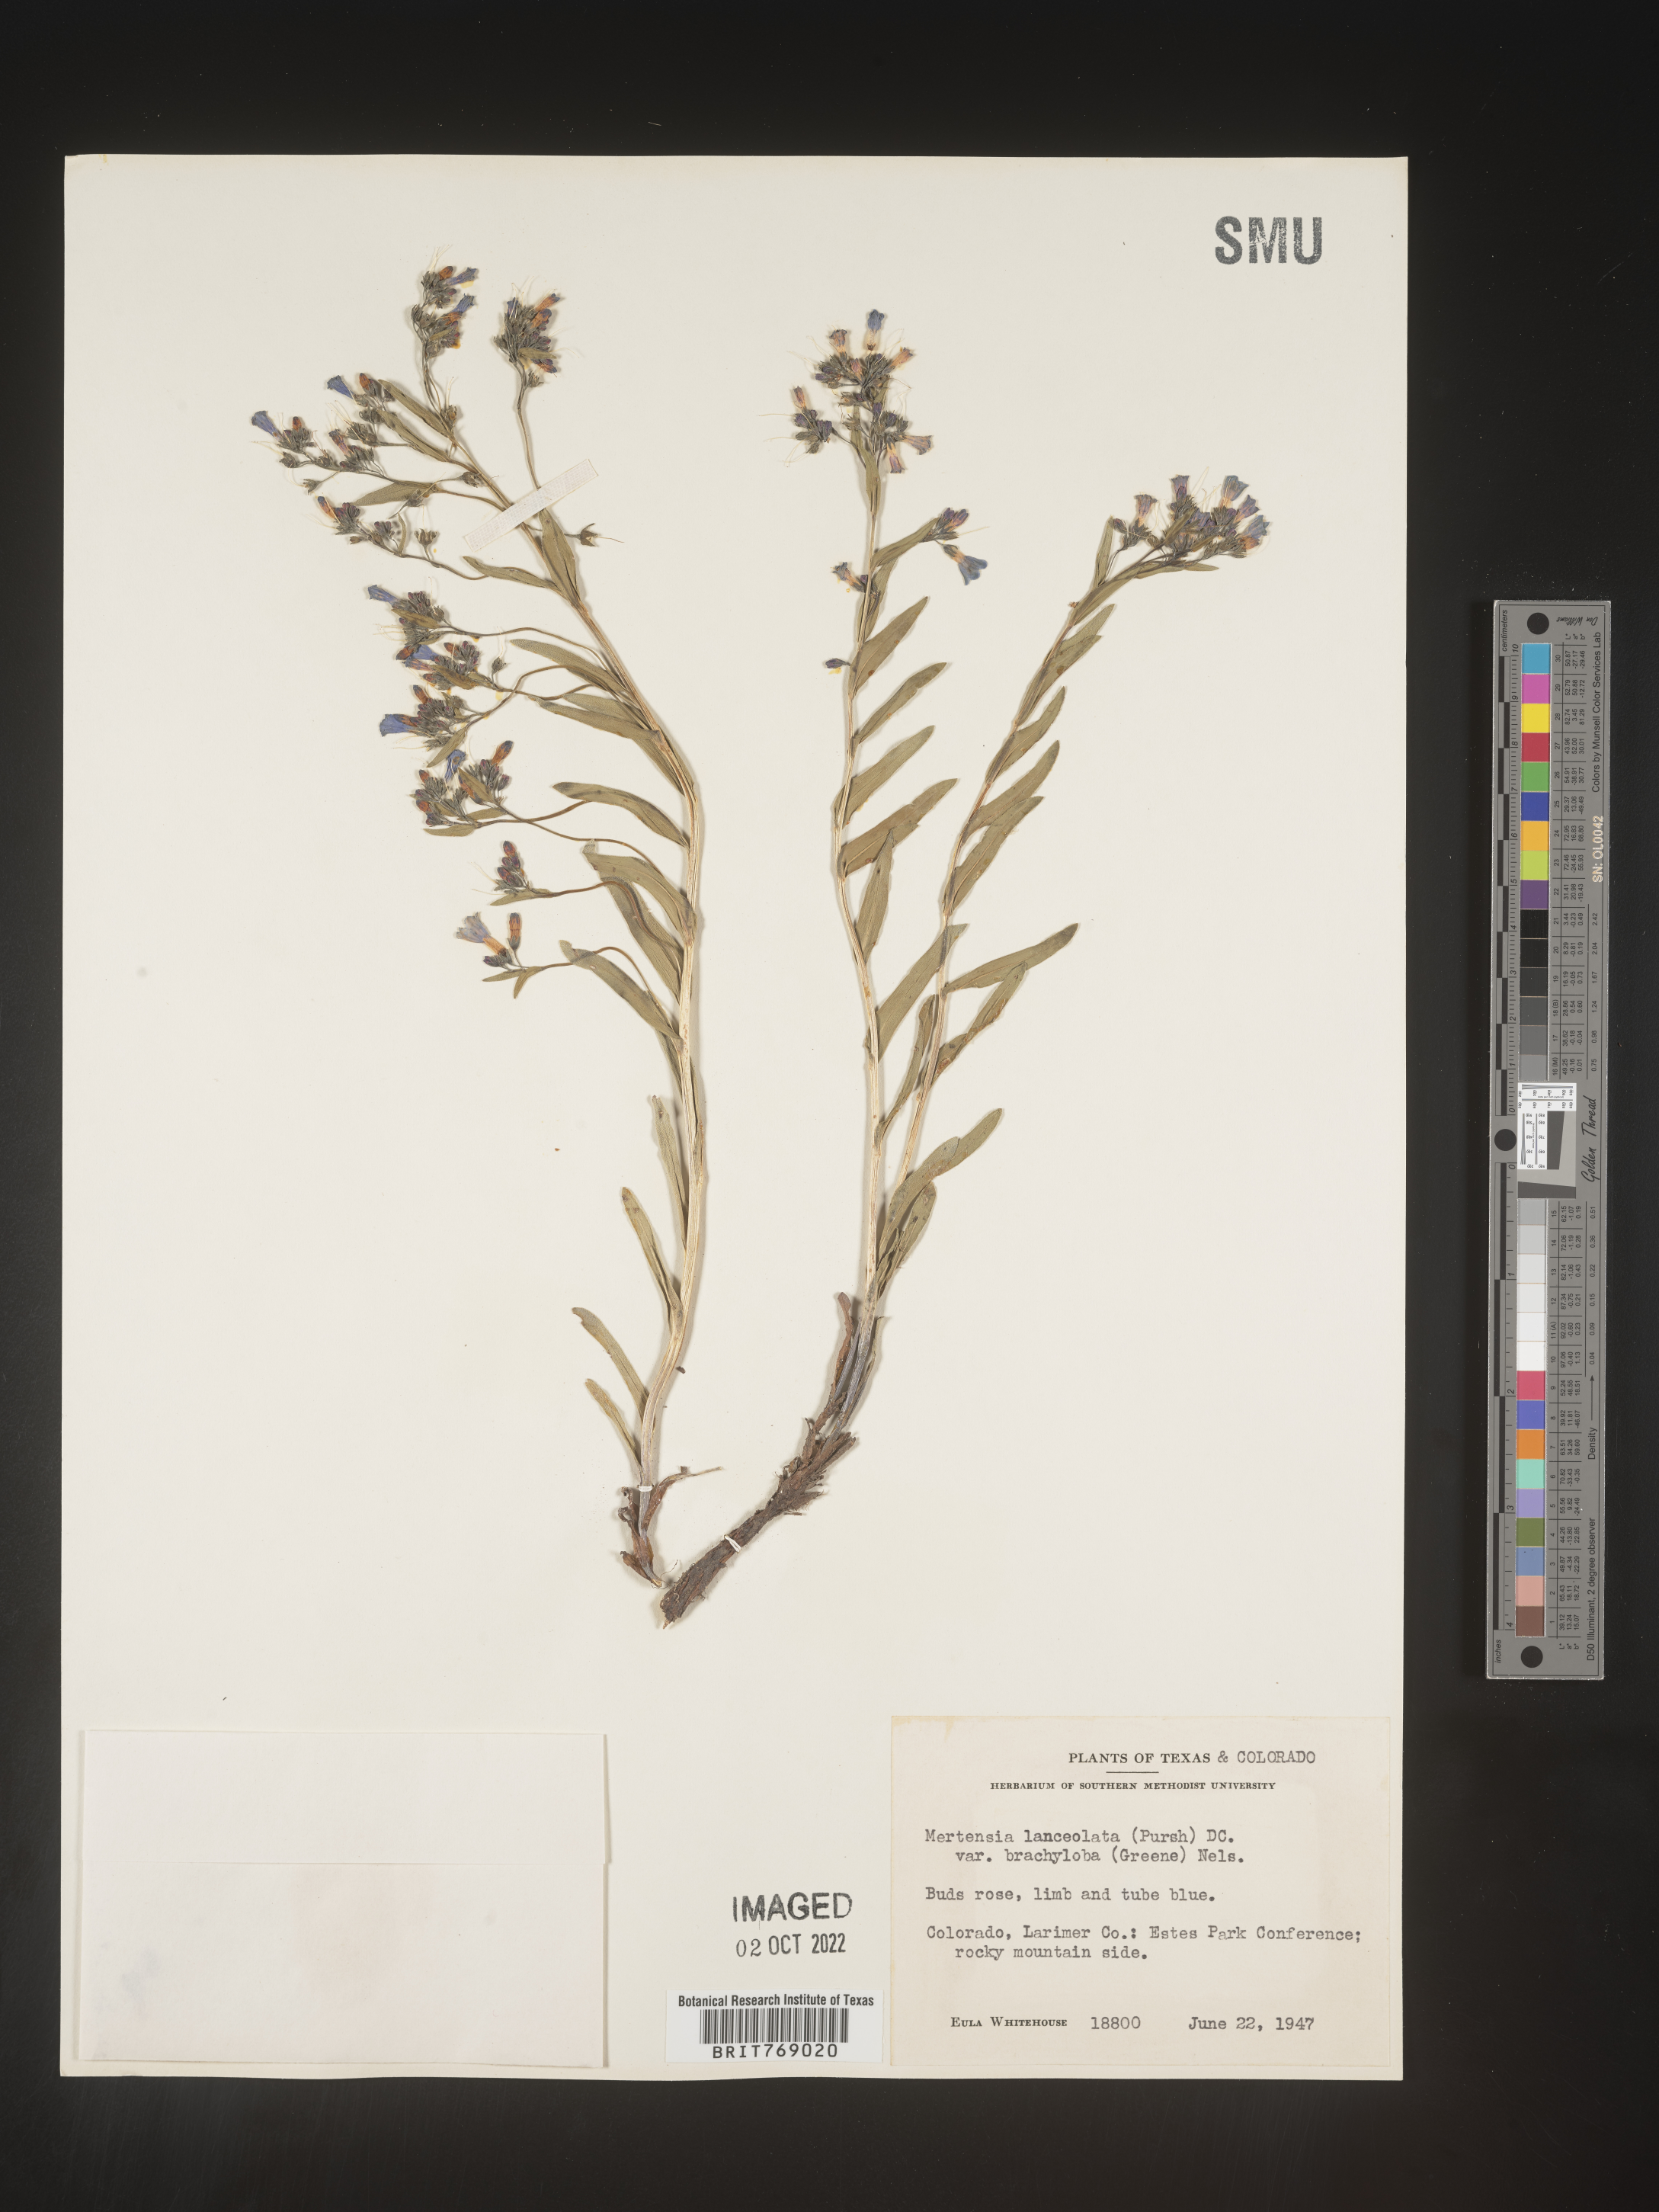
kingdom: Plantae
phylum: Tracheophyta
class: Magnoliopsida
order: Boraginales
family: Boraginaceae
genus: Mertensia
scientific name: Mertensia
